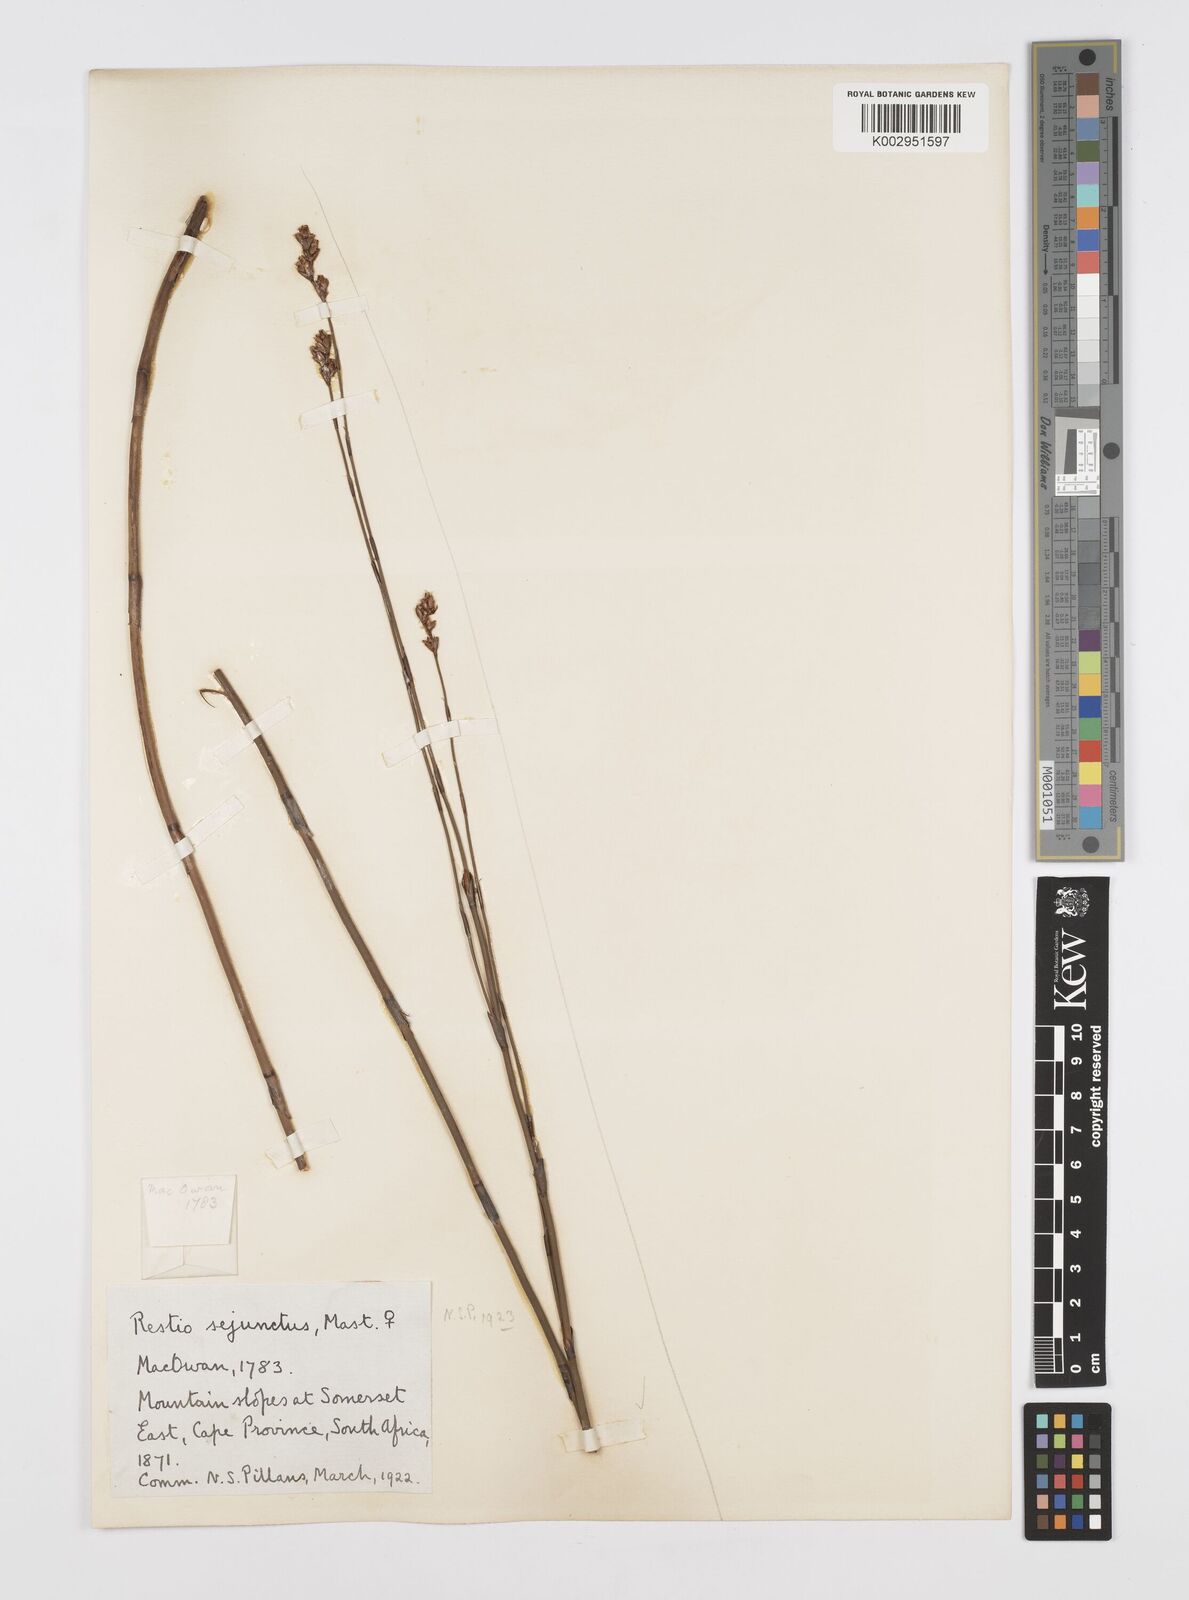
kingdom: Plantae
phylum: Tracheophyta
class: Liliopsida
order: Poales
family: Restionaceae
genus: Restio
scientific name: Restio sejunctus
